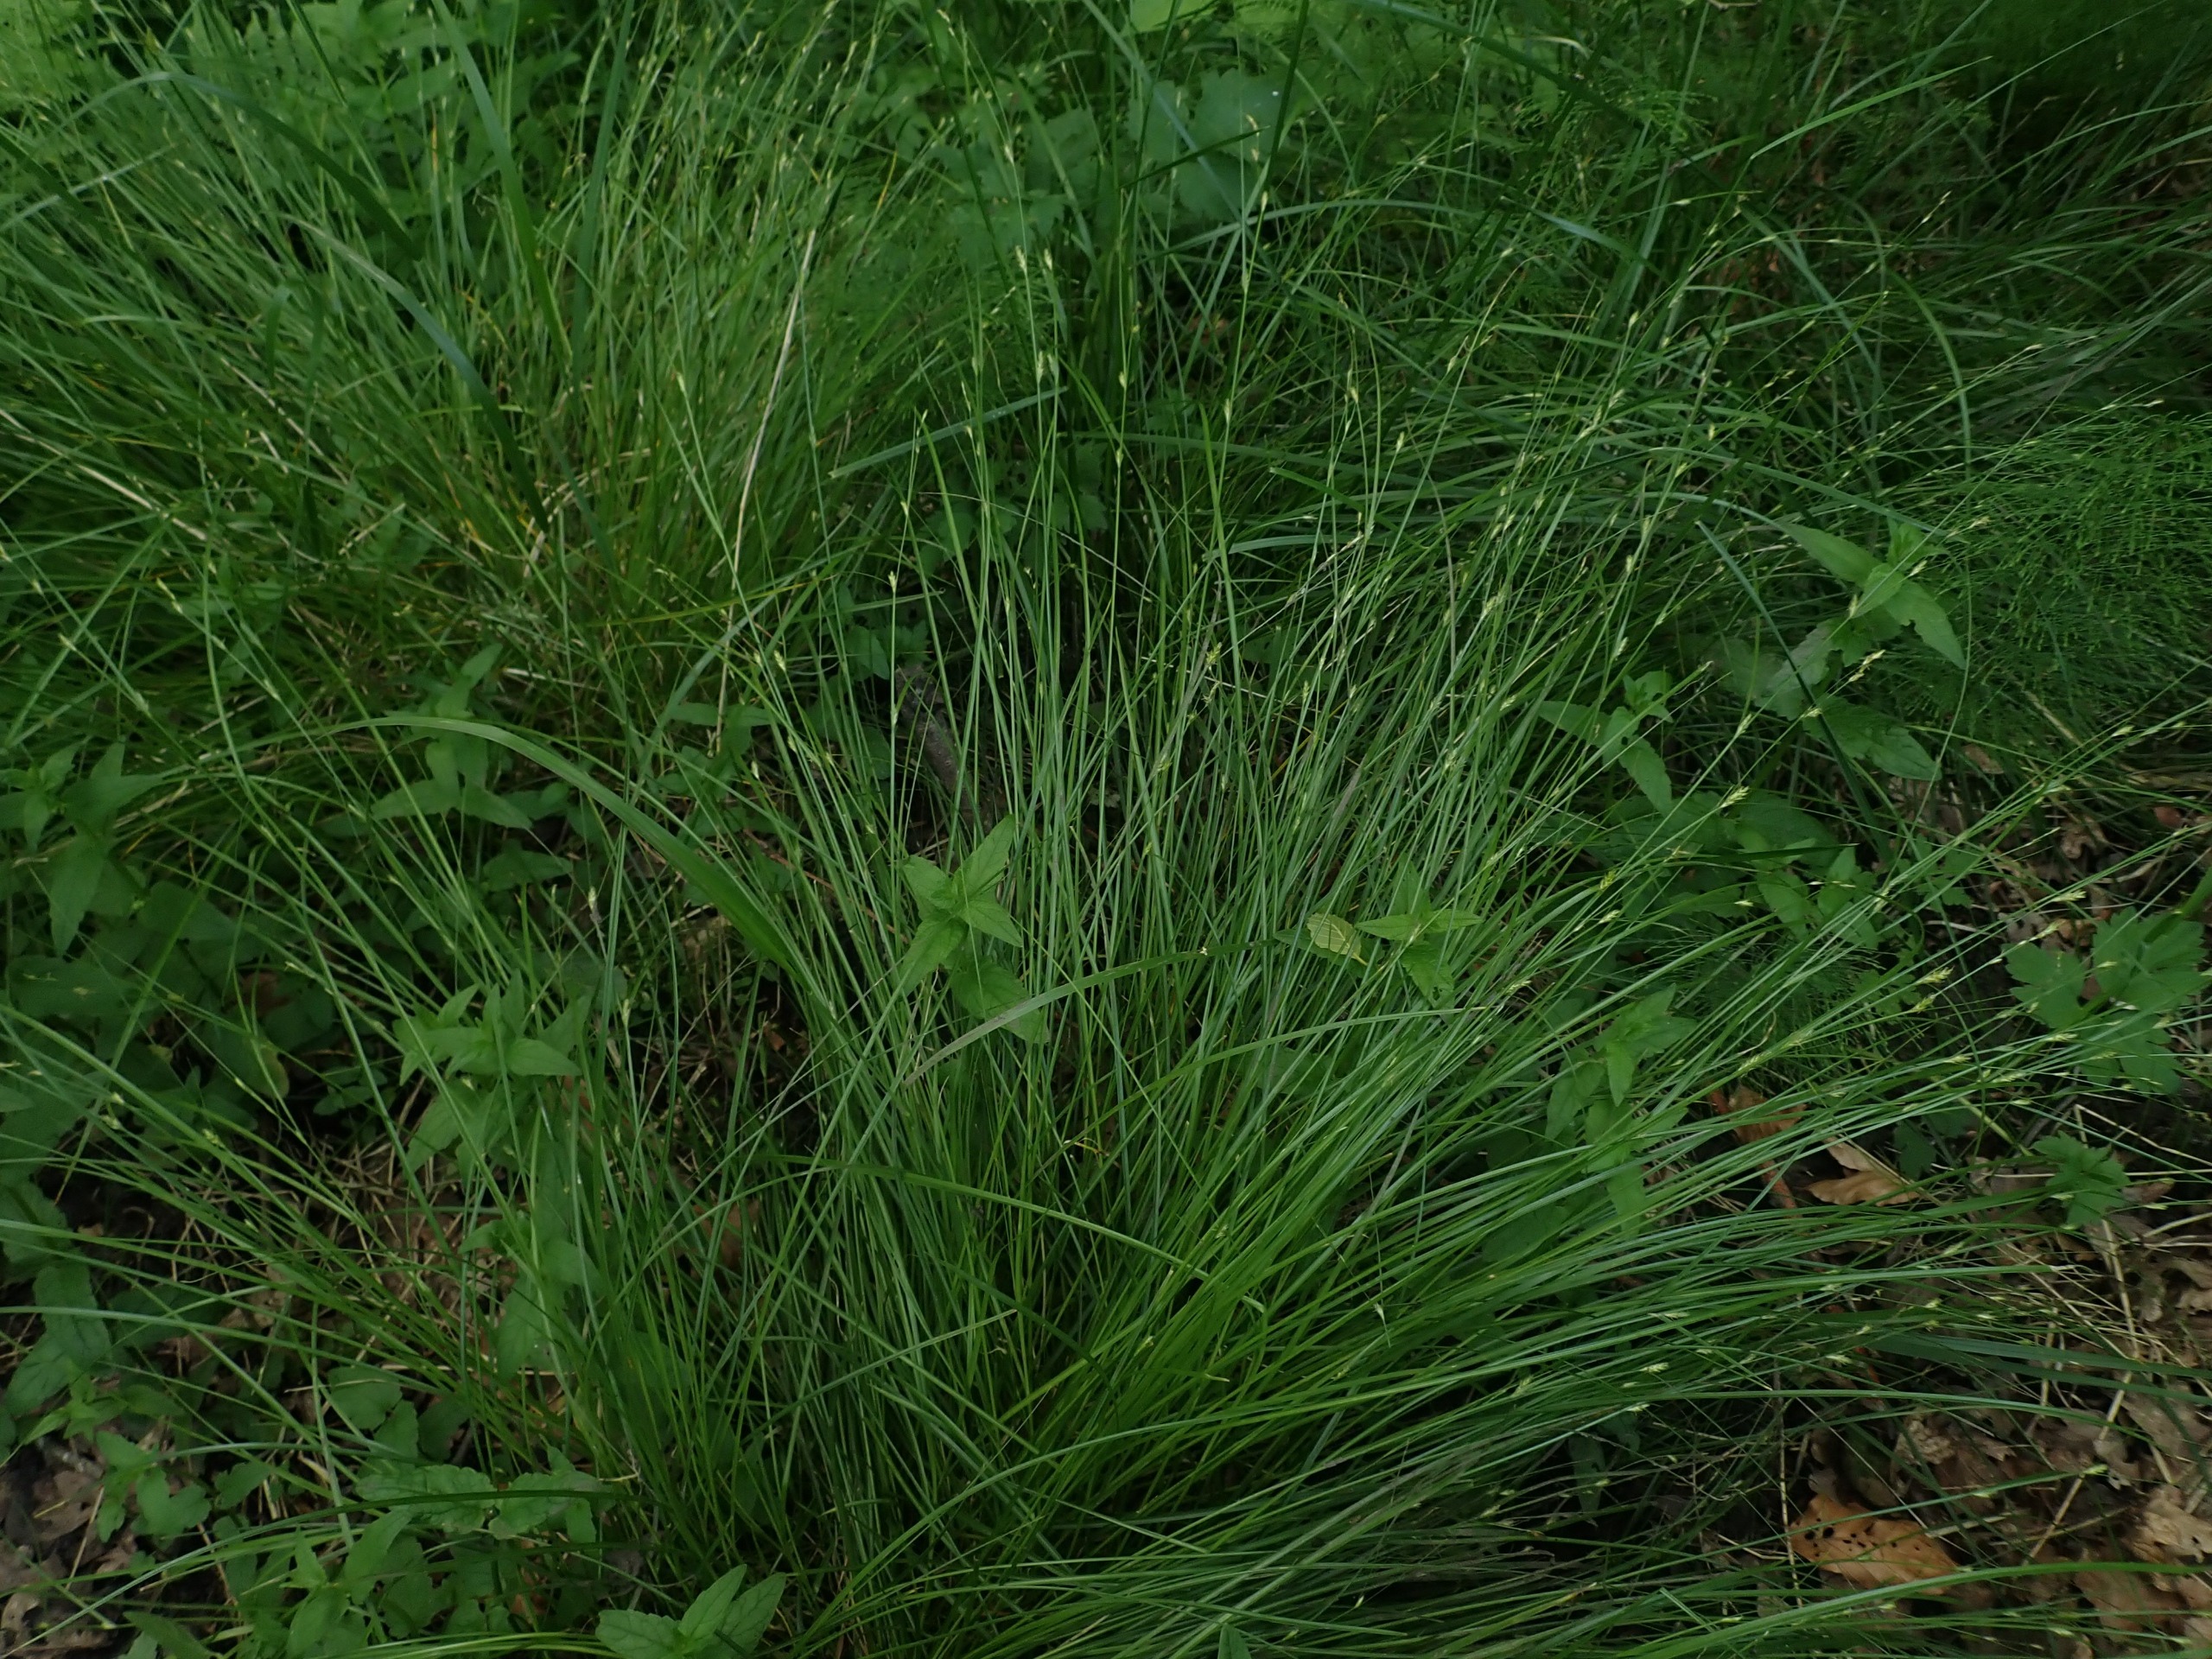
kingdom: Plantae
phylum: Tracheophyta
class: Liliopsida
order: Poales
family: Cyperaceae
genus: Carex
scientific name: Carex remota
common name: Akselblomstret star
